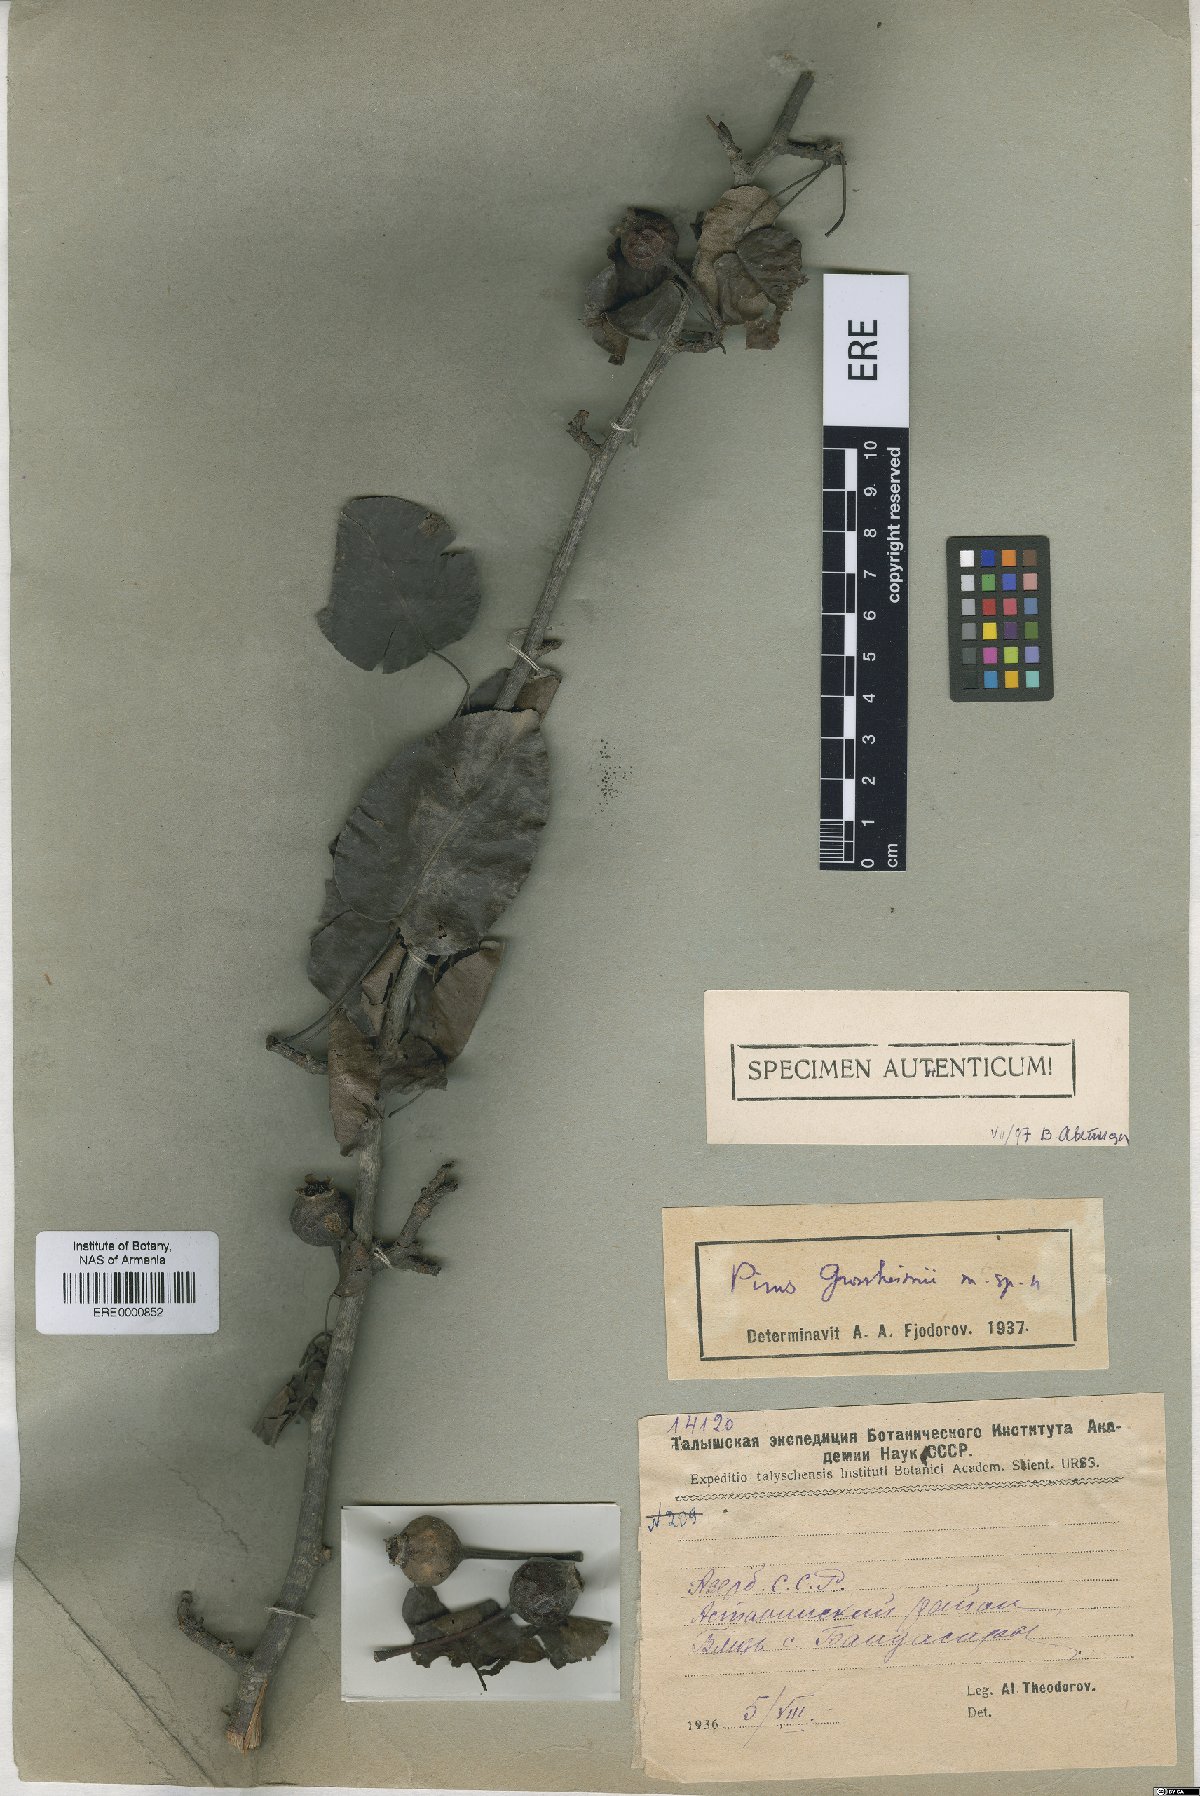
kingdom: Plantae
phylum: Tracheophyta
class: Magnoliopsida
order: Rosales
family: Rosaceae
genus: Pyrus
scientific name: Pyrus grossheimii
